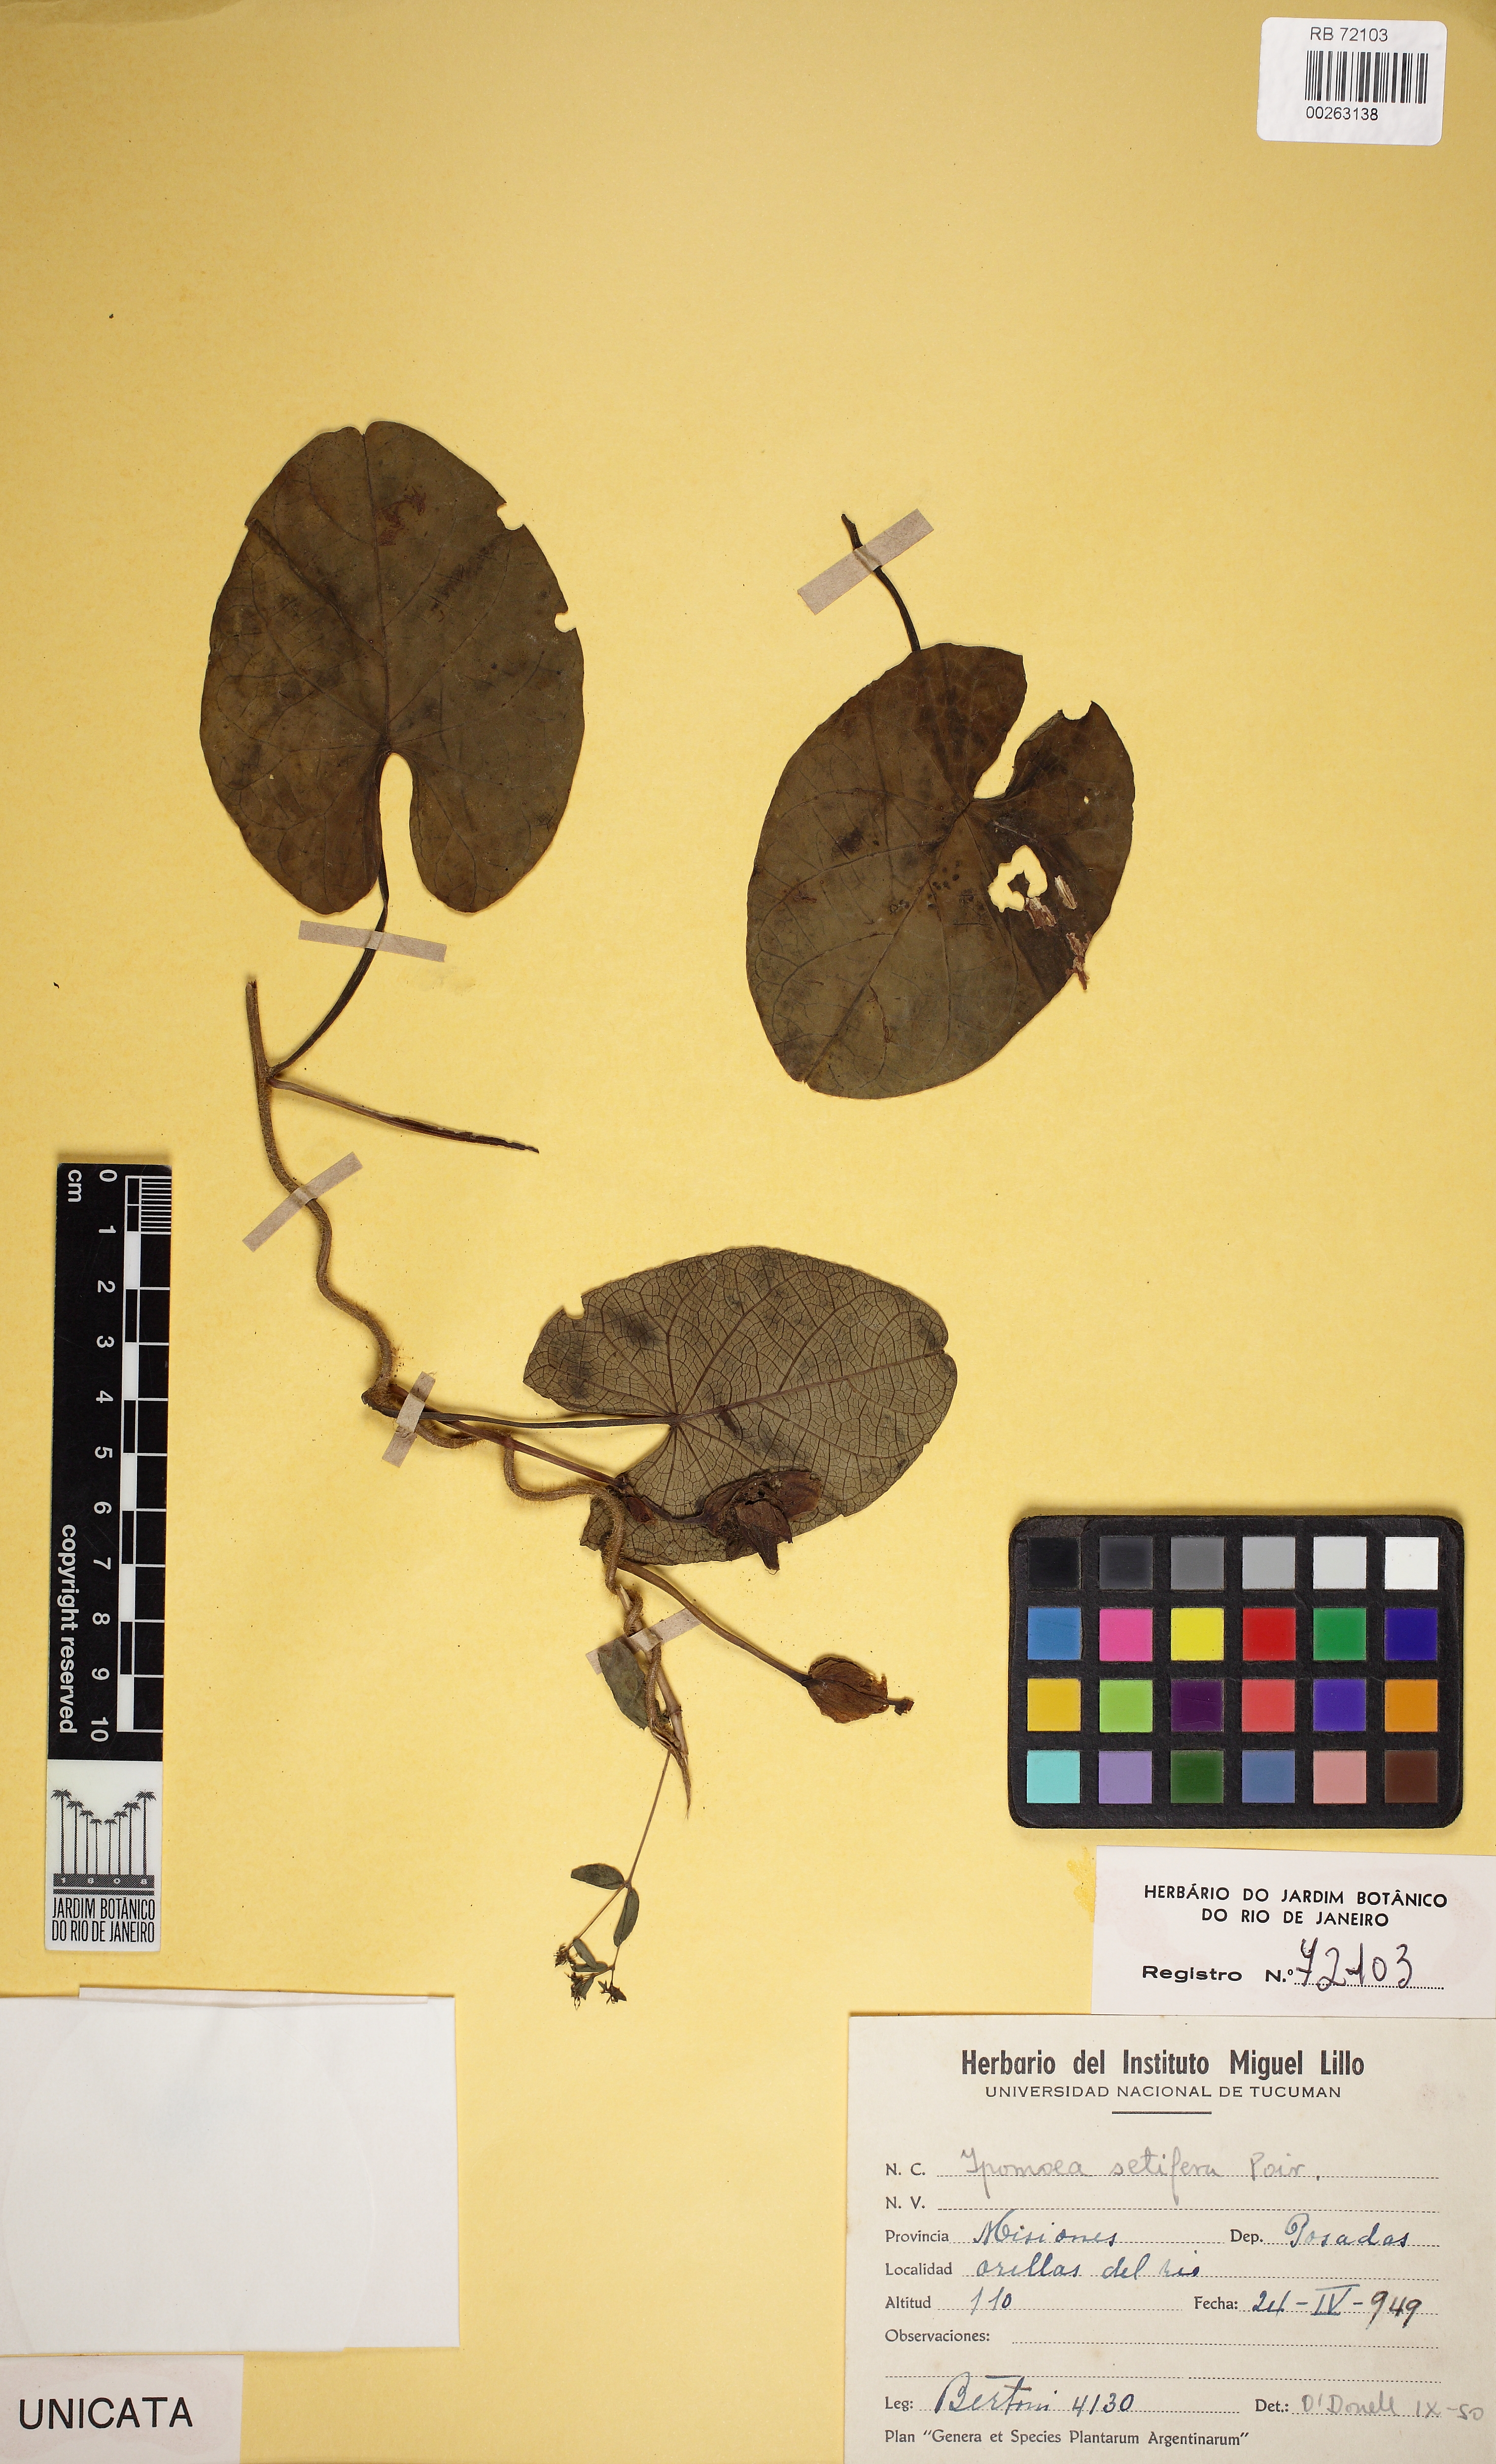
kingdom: Plantae
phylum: Tracheophyta
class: Magnoliopsida
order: Solanales
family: Convolvulaceae
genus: Ipomoea
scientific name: Ipomoea setifera
